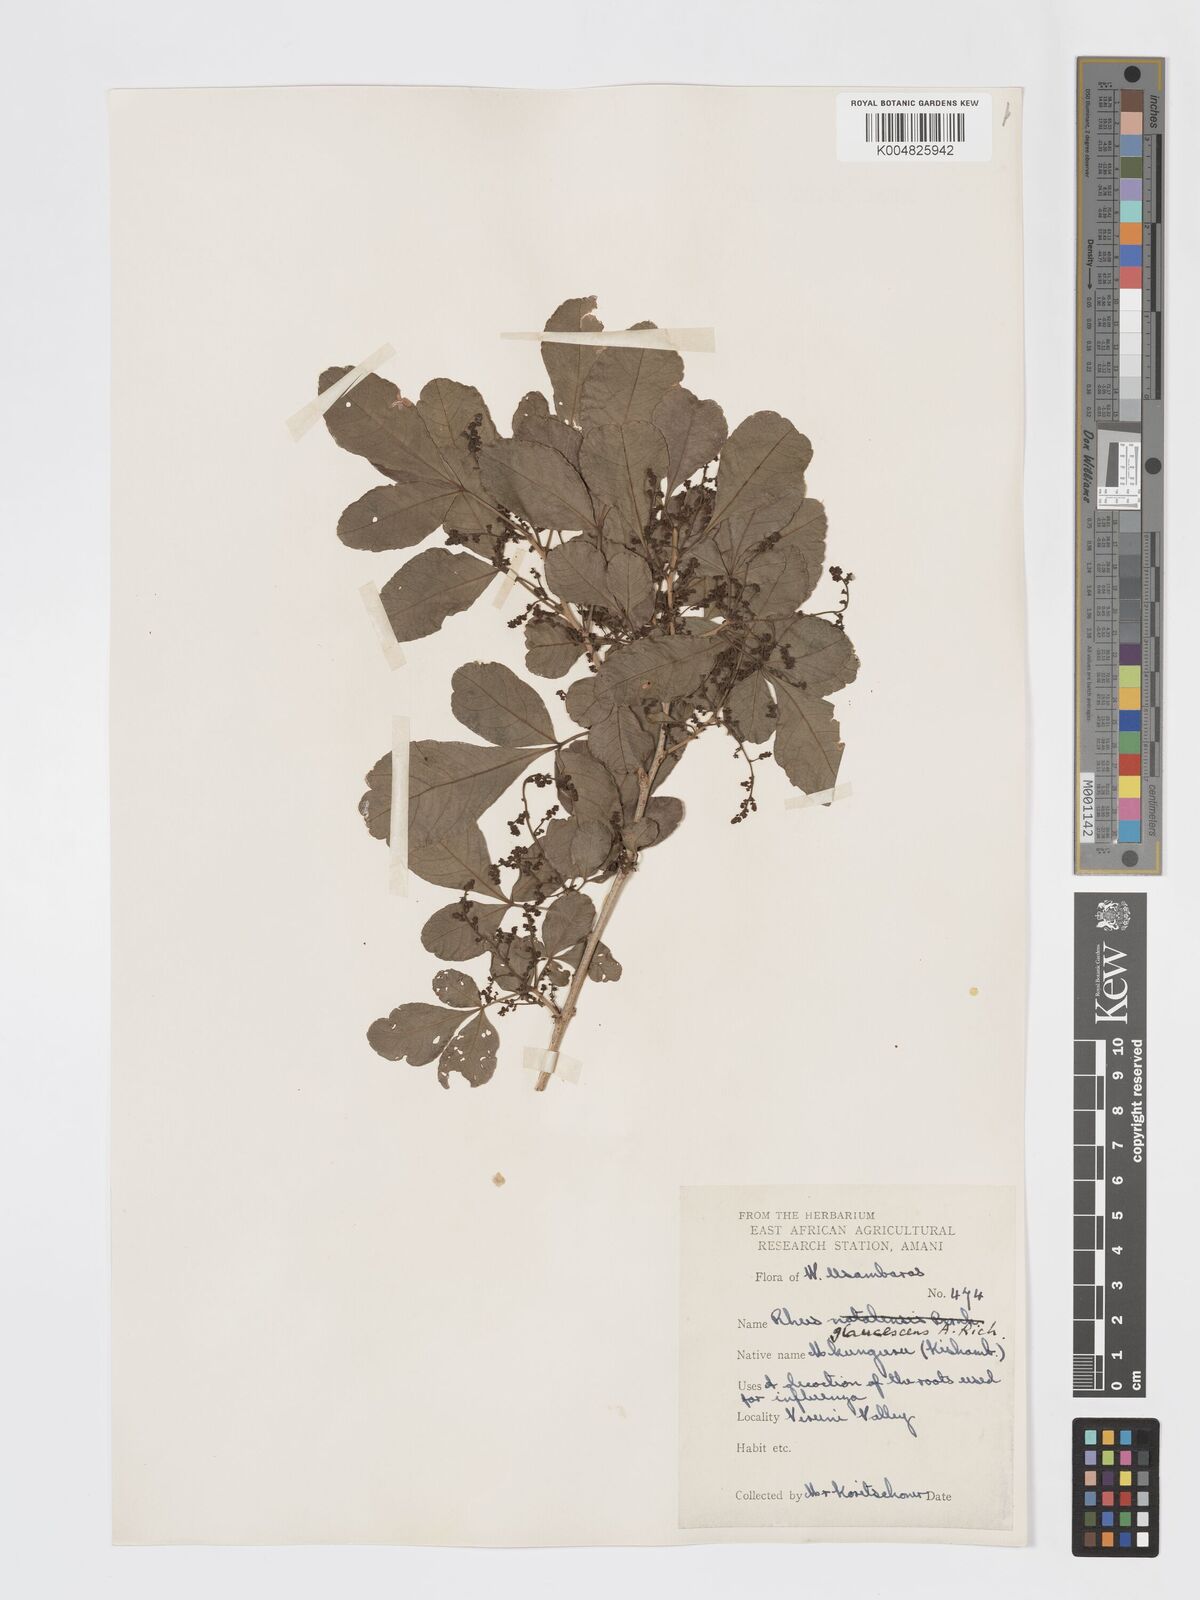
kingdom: Plantae
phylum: Tracheophyta
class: Magnoliopsida
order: Sapindales
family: Anacardiaceae
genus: Searsia
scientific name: Searsia natalensis
